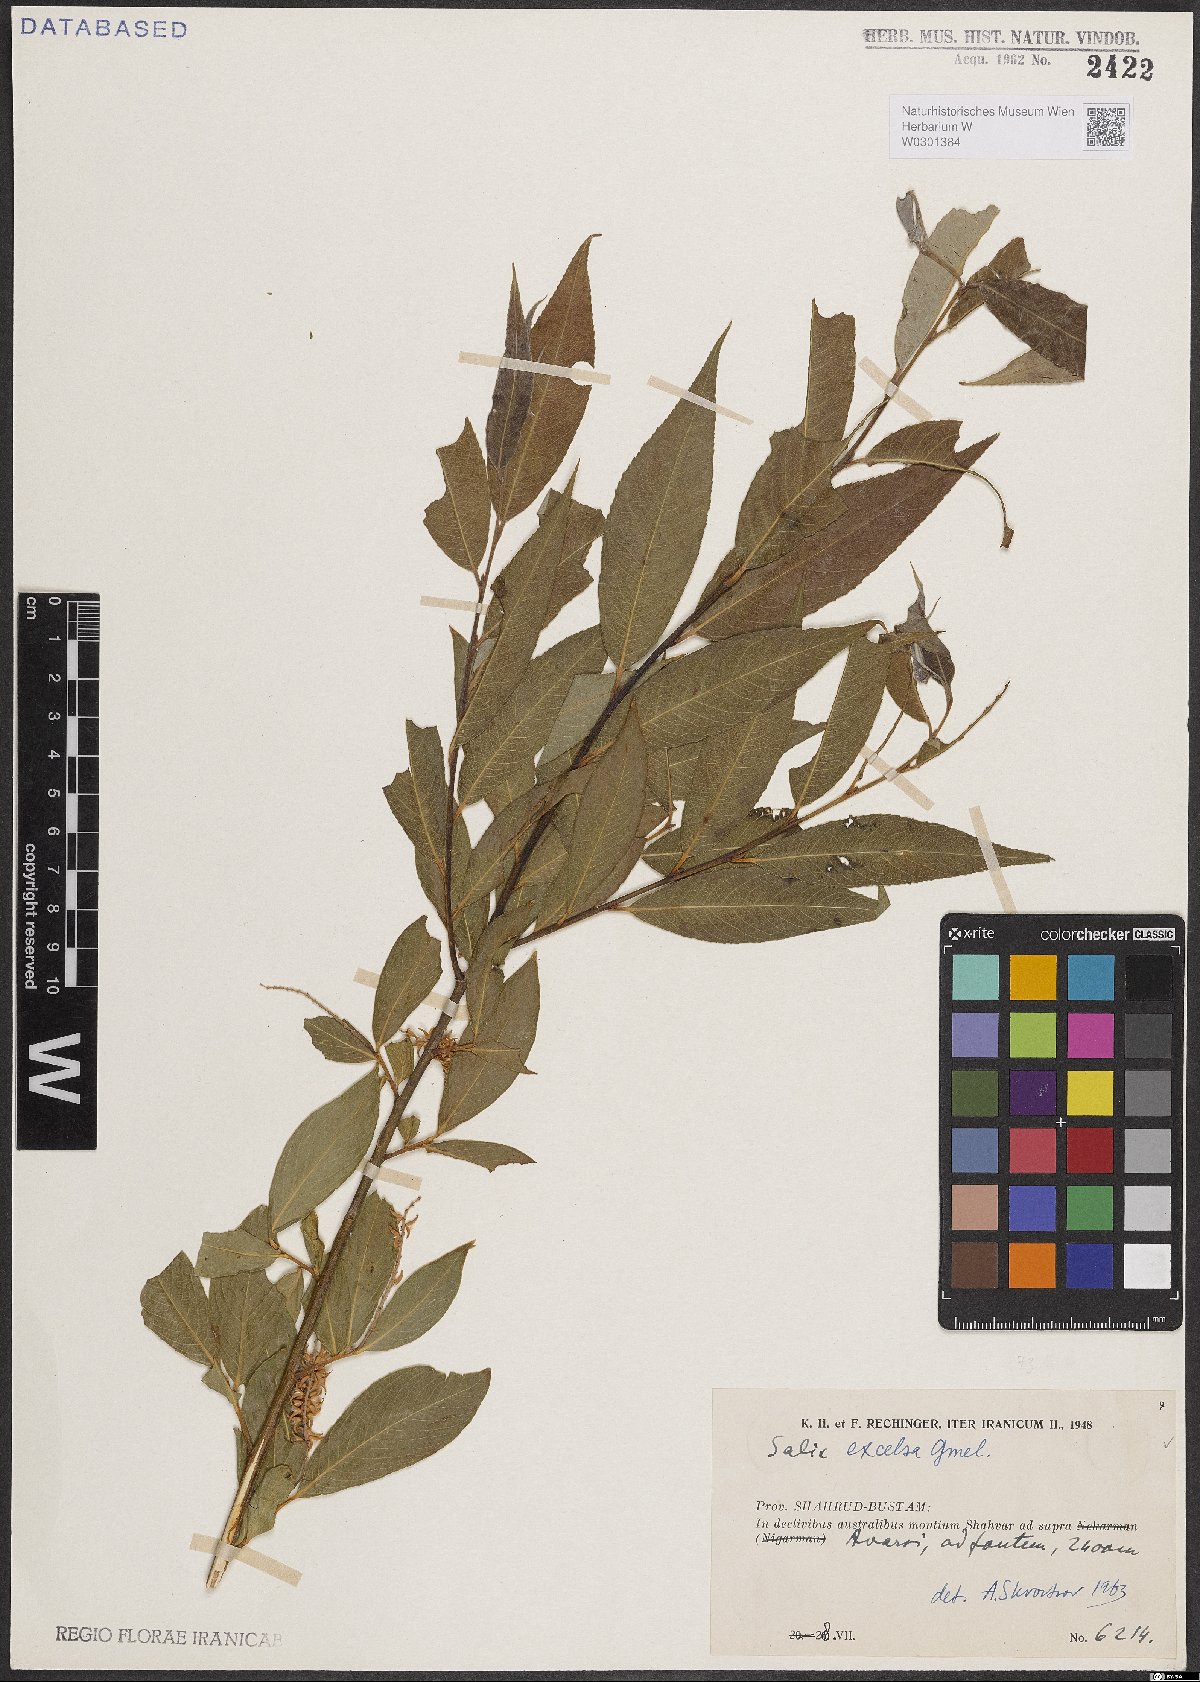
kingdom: Plantae
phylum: Tracheophyta
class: Magnoliopsida
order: Malpighiales
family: Salicaceae
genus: Salix
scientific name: Salix excelsa
